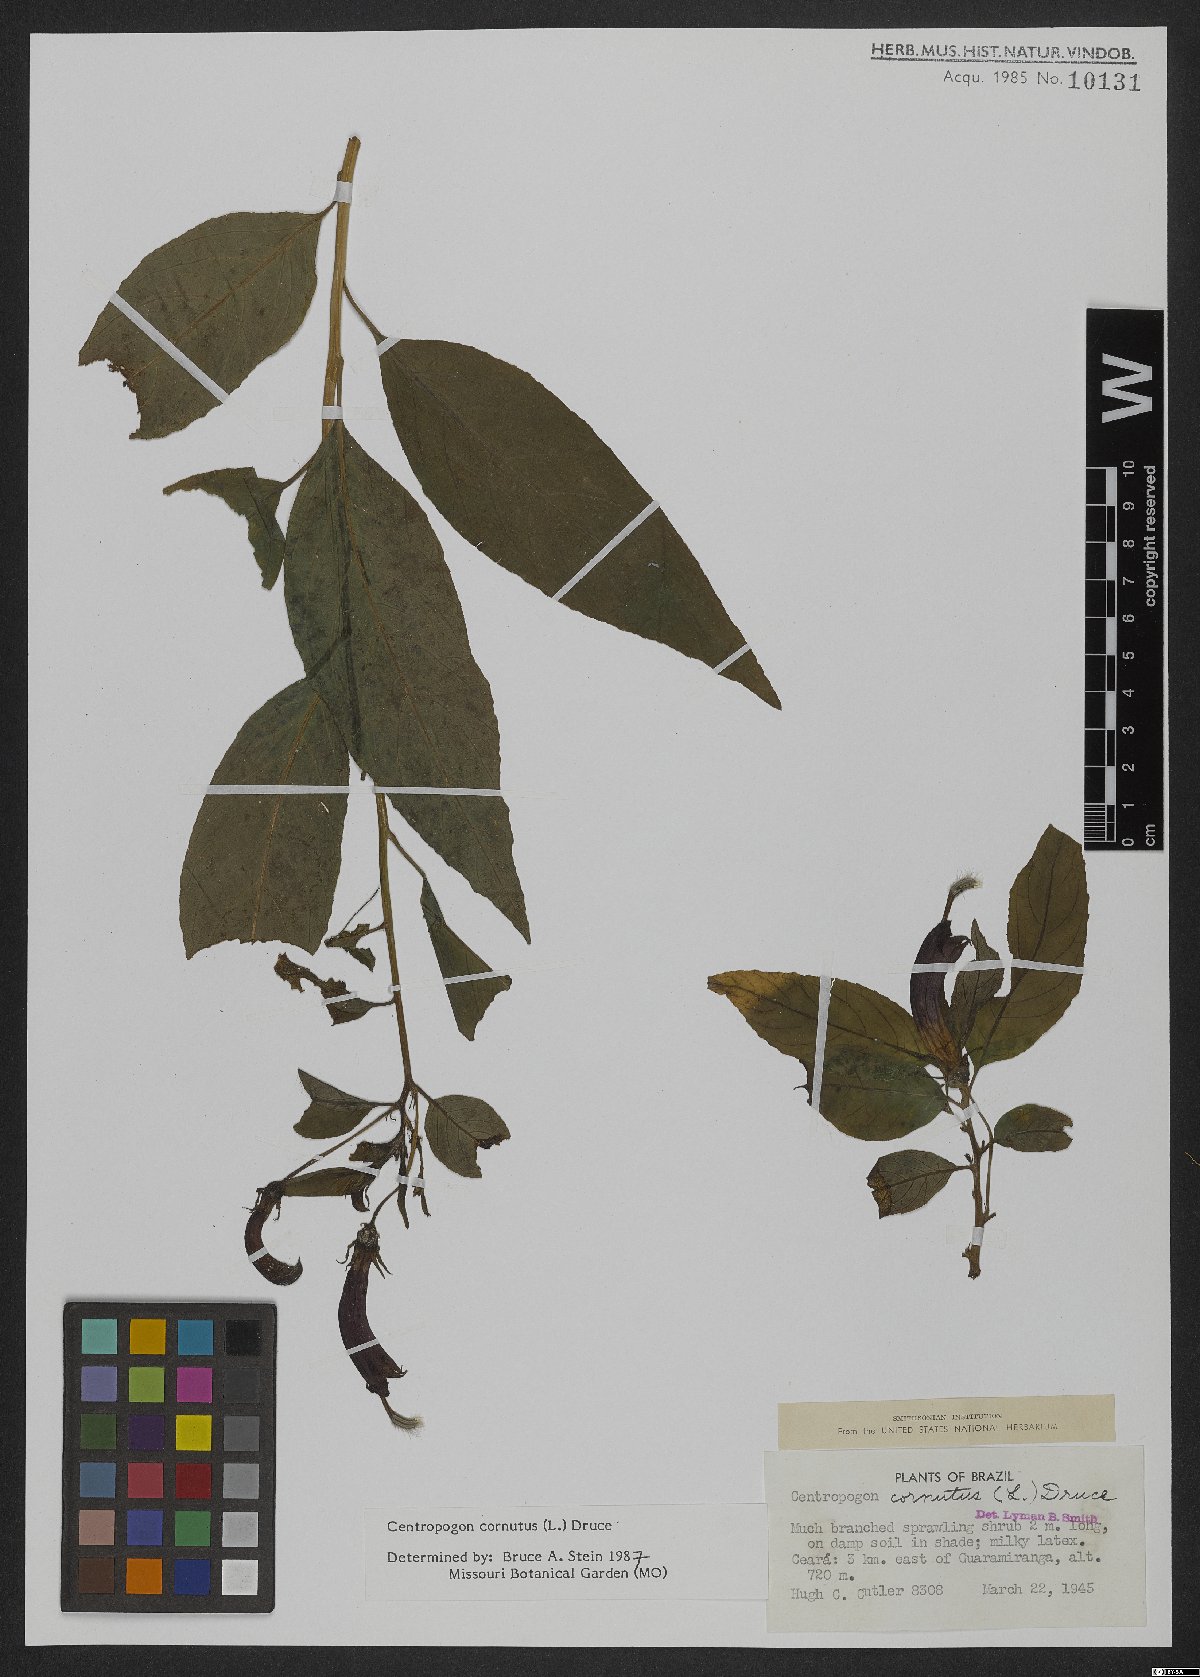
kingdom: Plantae
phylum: Tracheophyta
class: Magnoliopsida
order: Asterales
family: Campanulaceae
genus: Centropogon
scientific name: Centropogon cornutus
